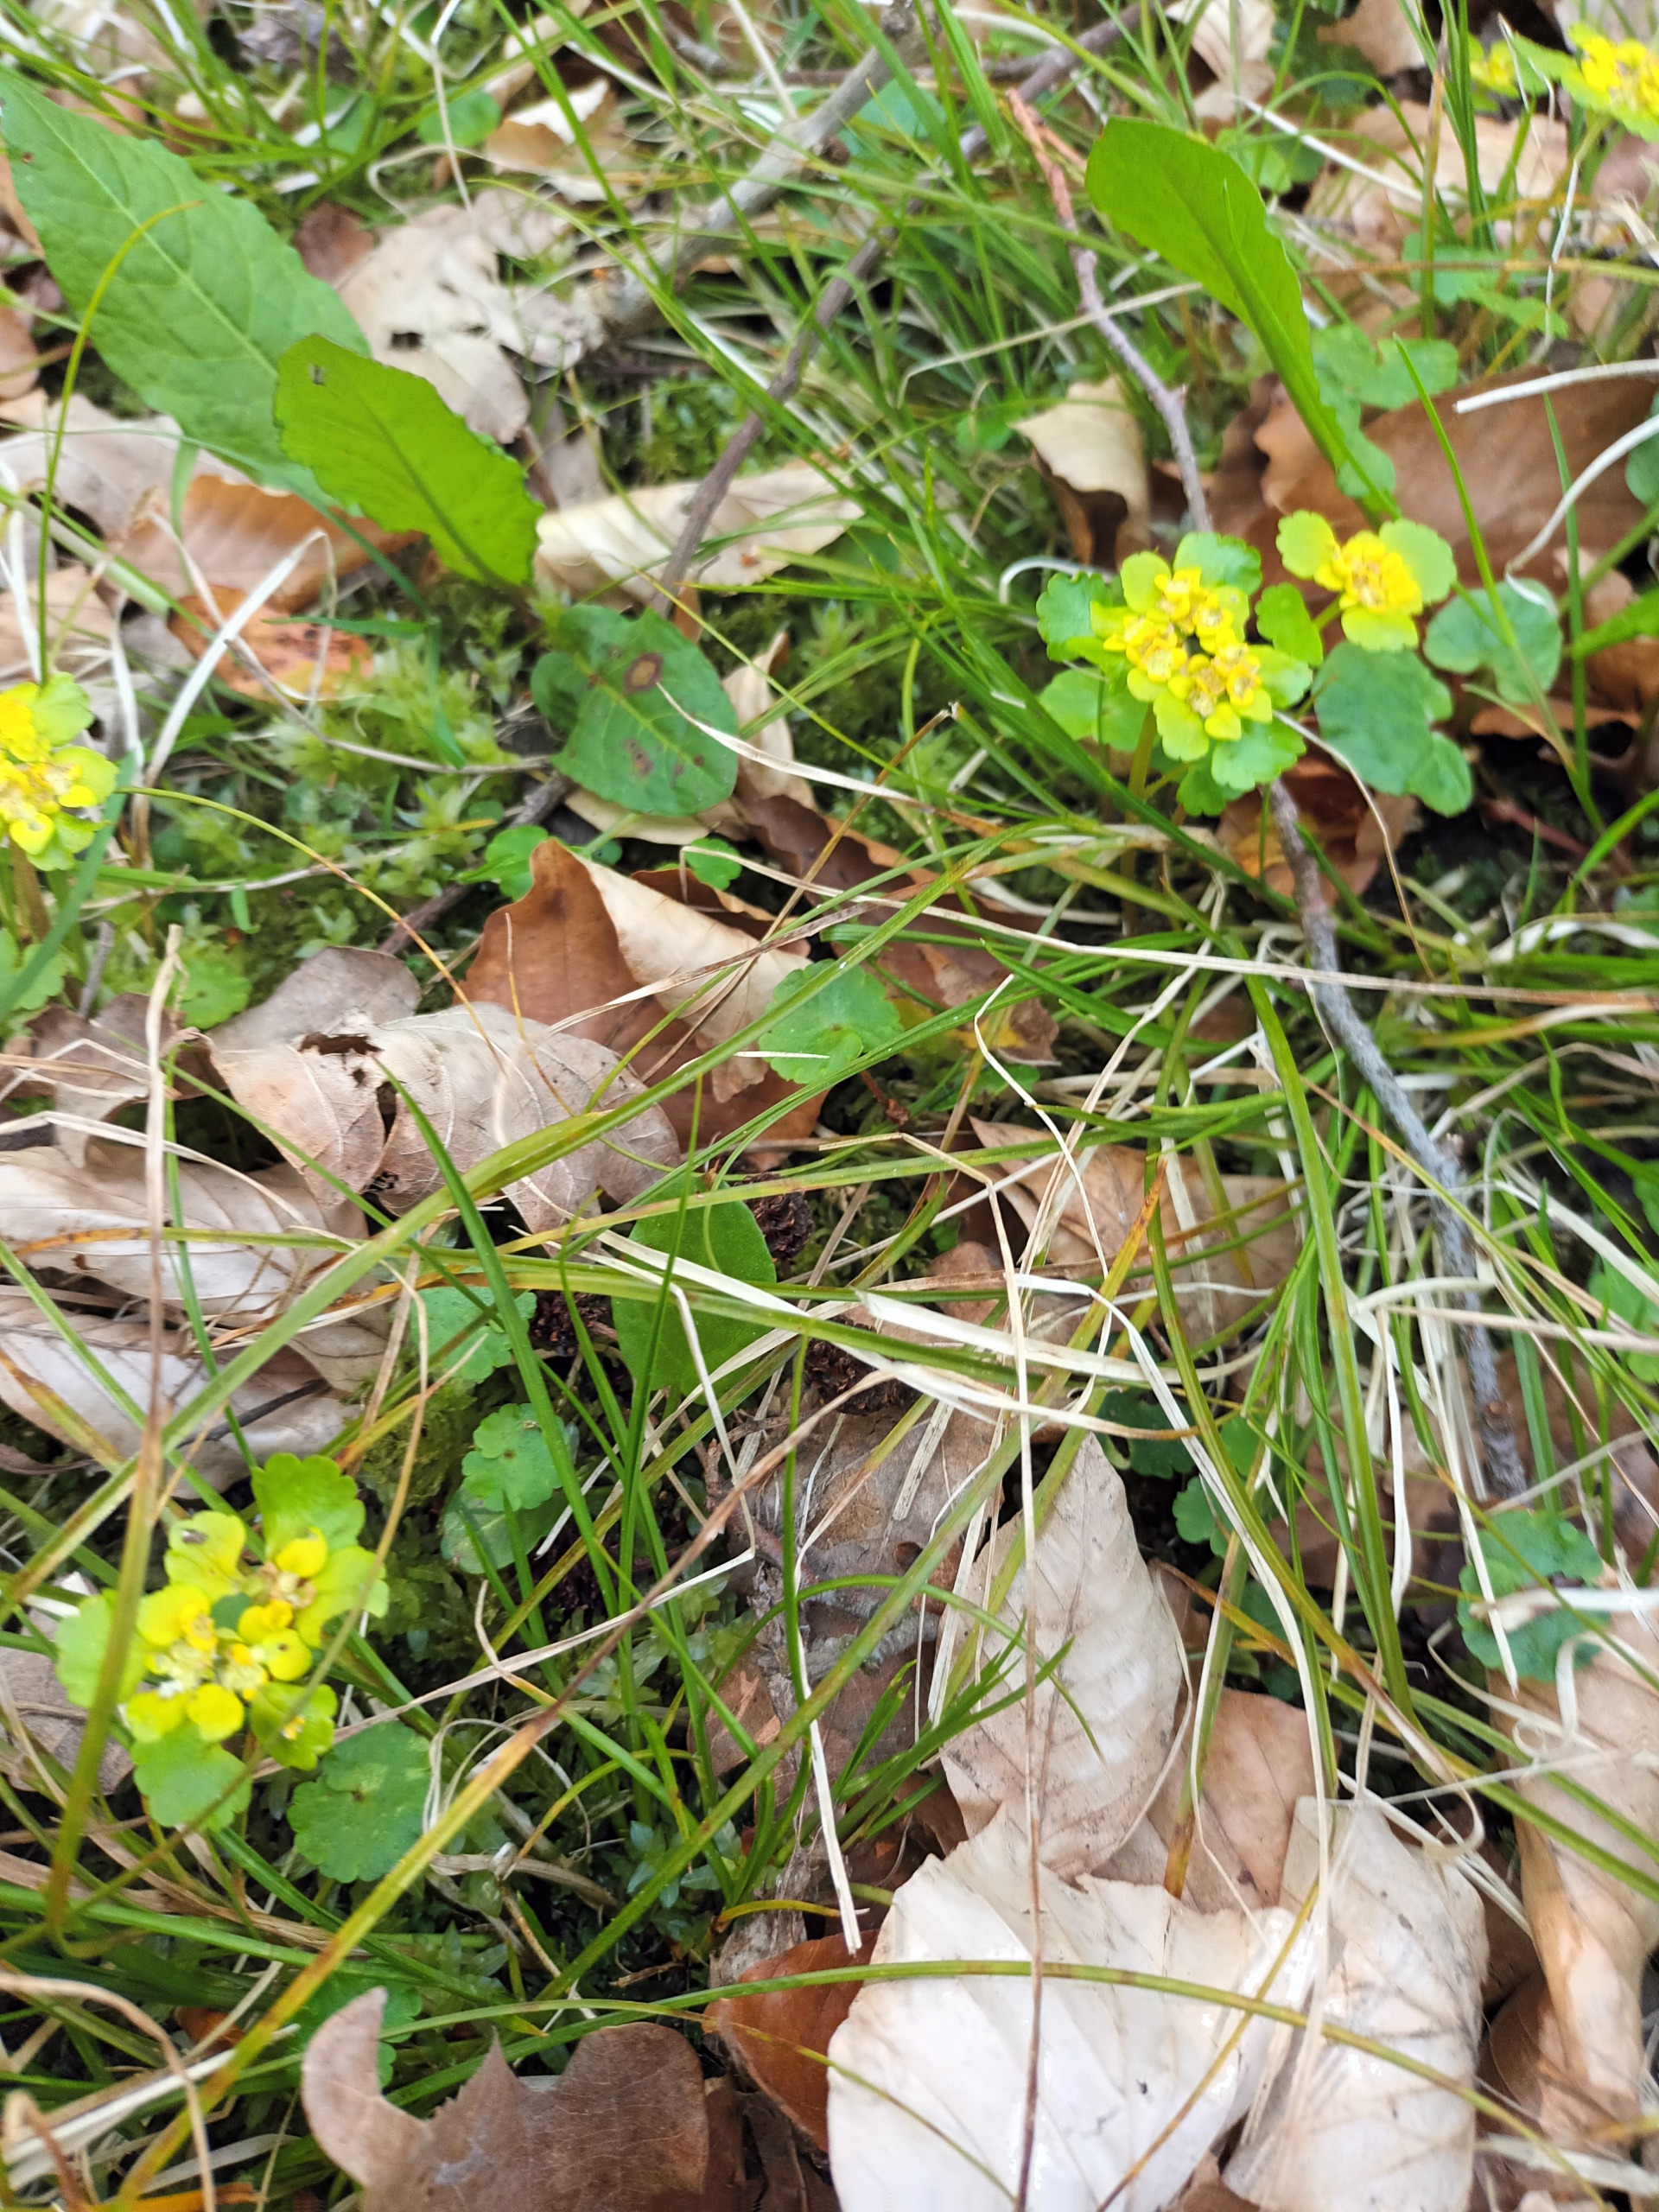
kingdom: Plantae
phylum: Tracheophyta
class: Magnoliopsida
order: Saxifragales
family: Saxifragaceae
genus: Chrysosplenium
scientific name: Chrysosplenium alternifolium
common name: Almindelig milturt
